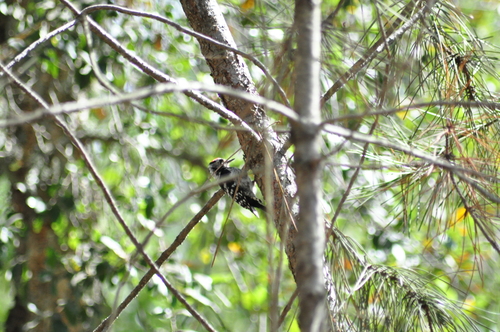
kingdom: Animalia
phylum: Chordata
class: Aves
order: Piciformes
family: Picidae
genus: Dryobates
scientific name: Dryobates minor
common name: Lesser spotted woodpecker
